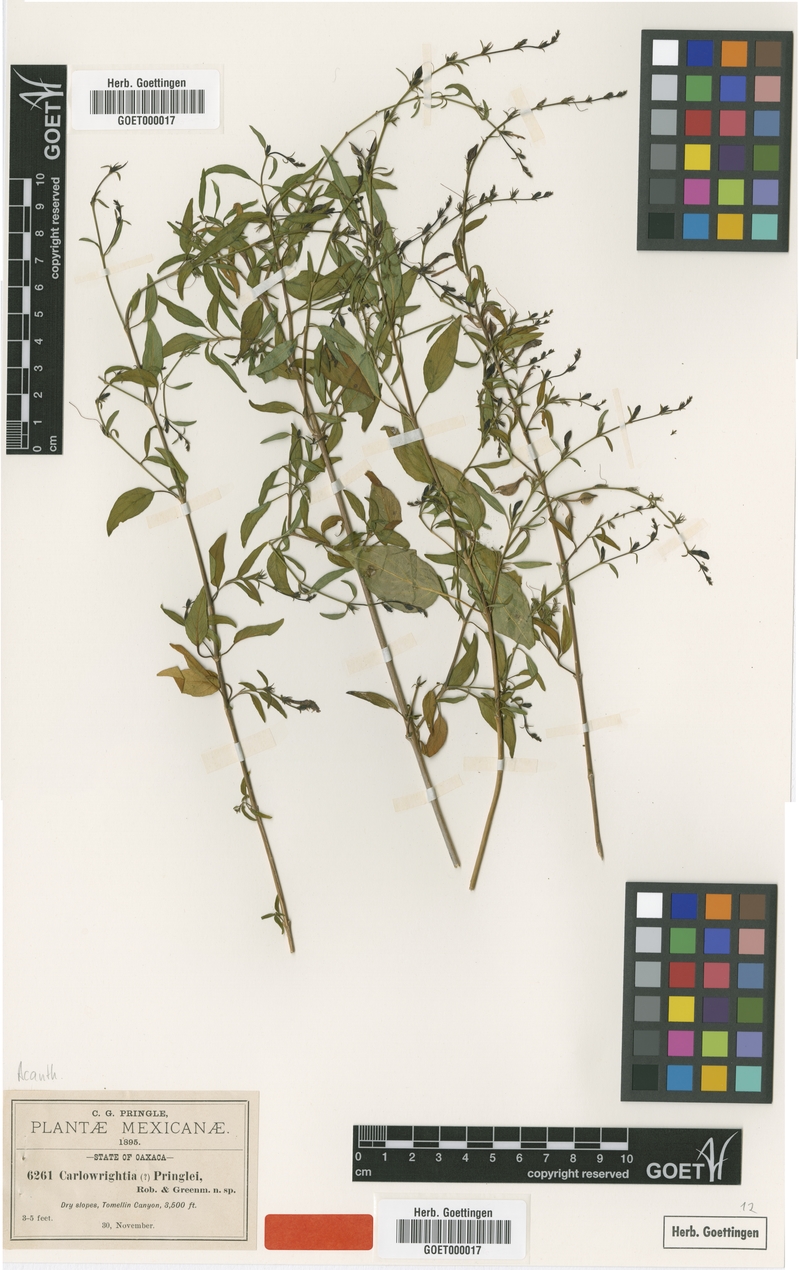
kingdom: Plantae
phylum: Tracheophyta
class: Magnoliopsida
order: Lamiales
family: Acanthaceae
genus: Carlowrightia
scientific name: Carlowrightia pringlei
